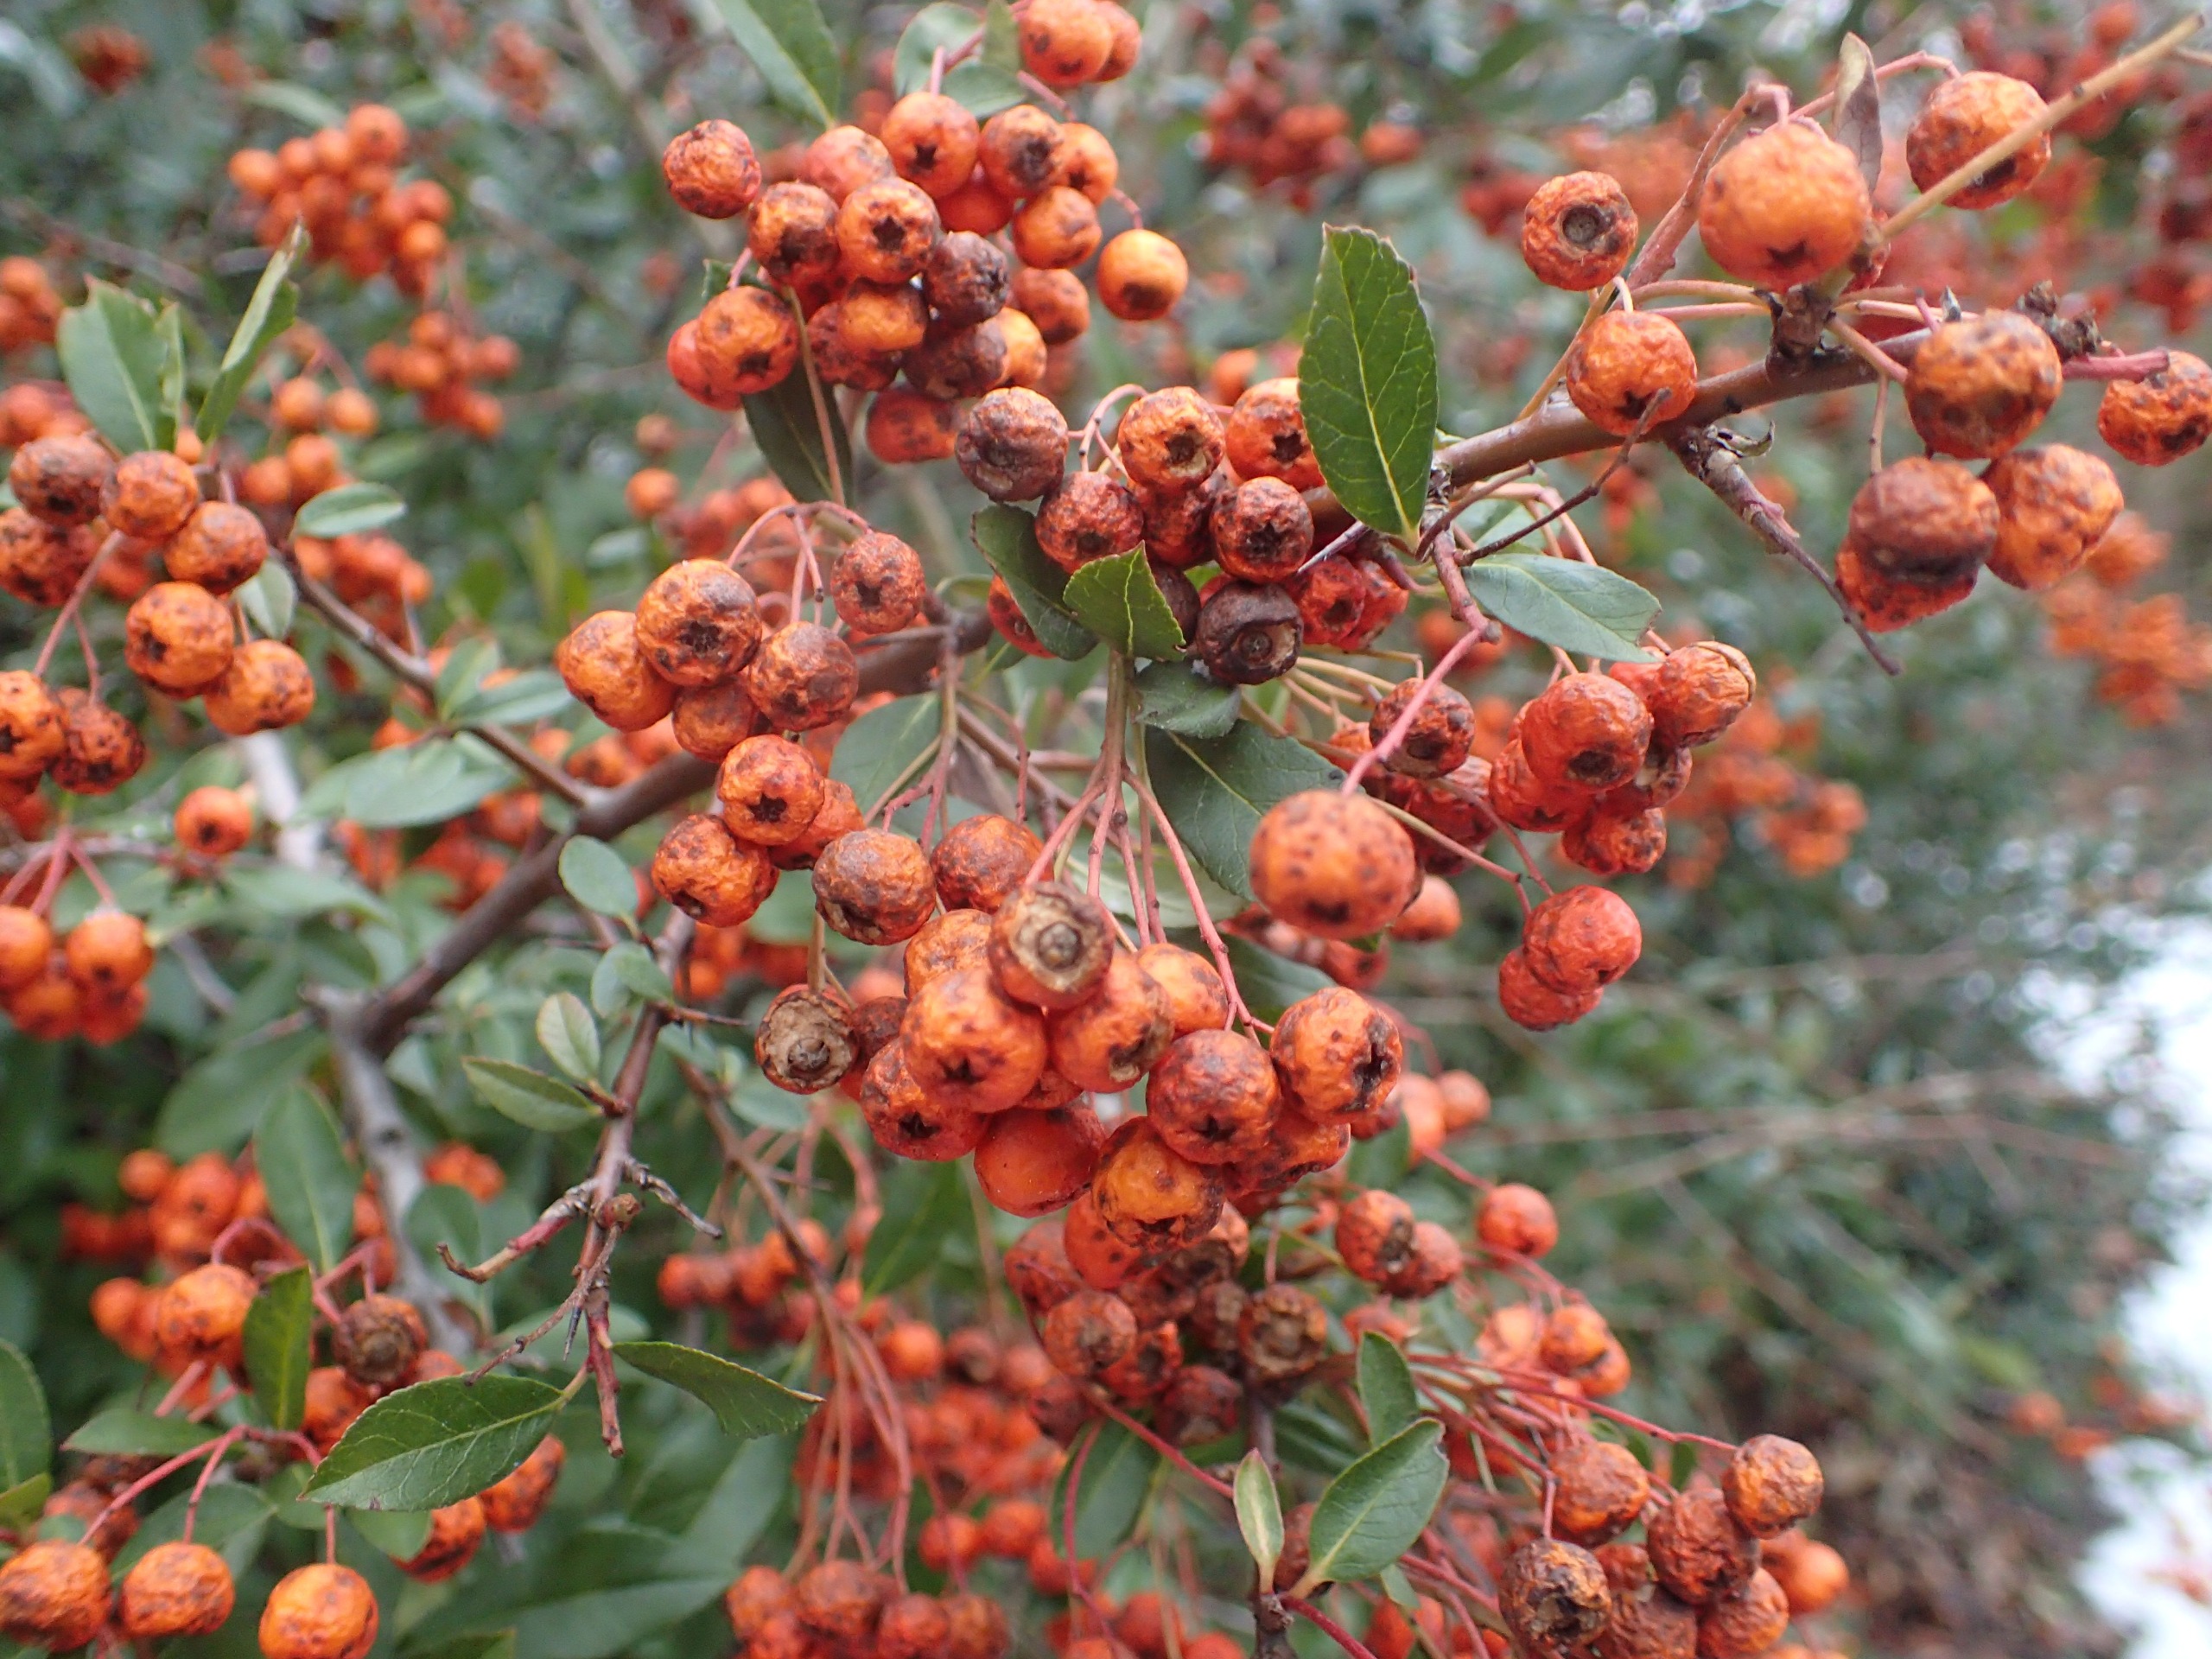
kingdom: Plantae
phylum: Tracheophyta
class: Magnoliopsida
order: Rosales
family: Rosaceae
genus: Pyracantha
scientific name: Pyracantha crenulata
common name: Orangegul ildtorn
